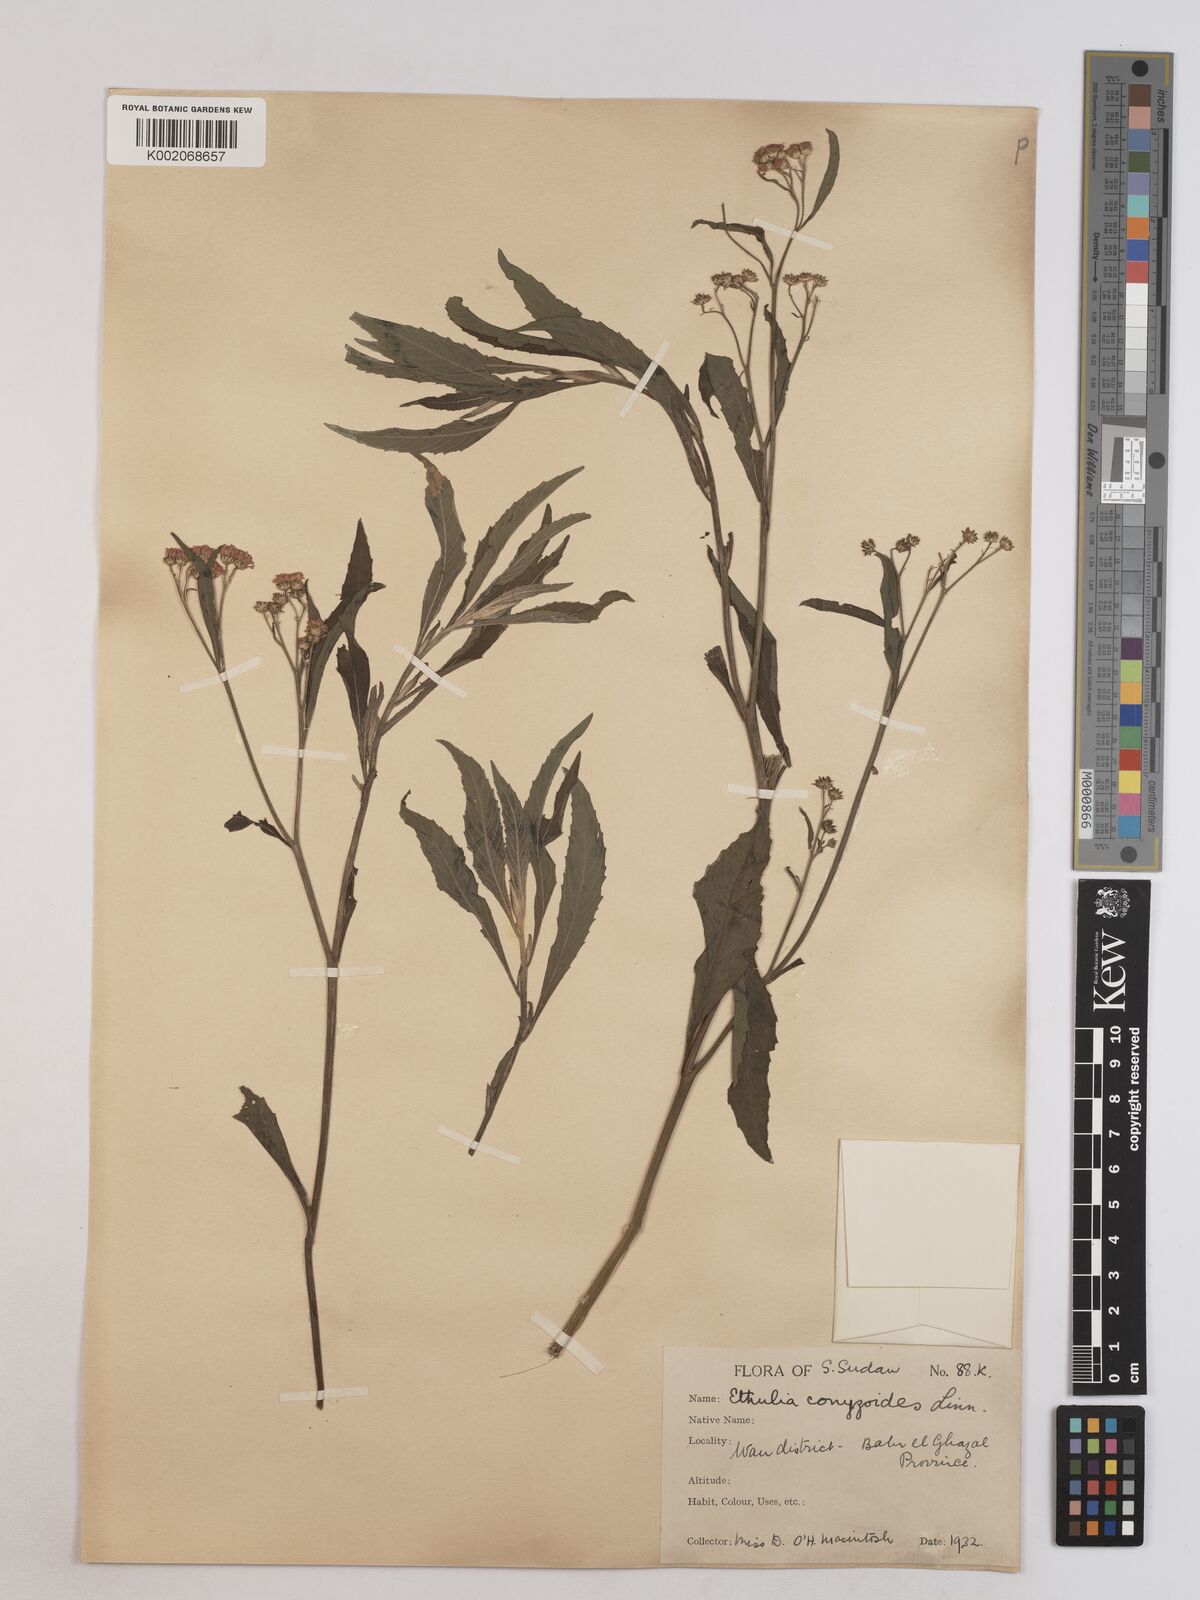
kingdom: Plantae
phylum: Tracheophyta
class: Magnoliopsida
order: Asterales
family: Asteraceae
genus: Ethulia
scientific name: Ethulia gracilis
